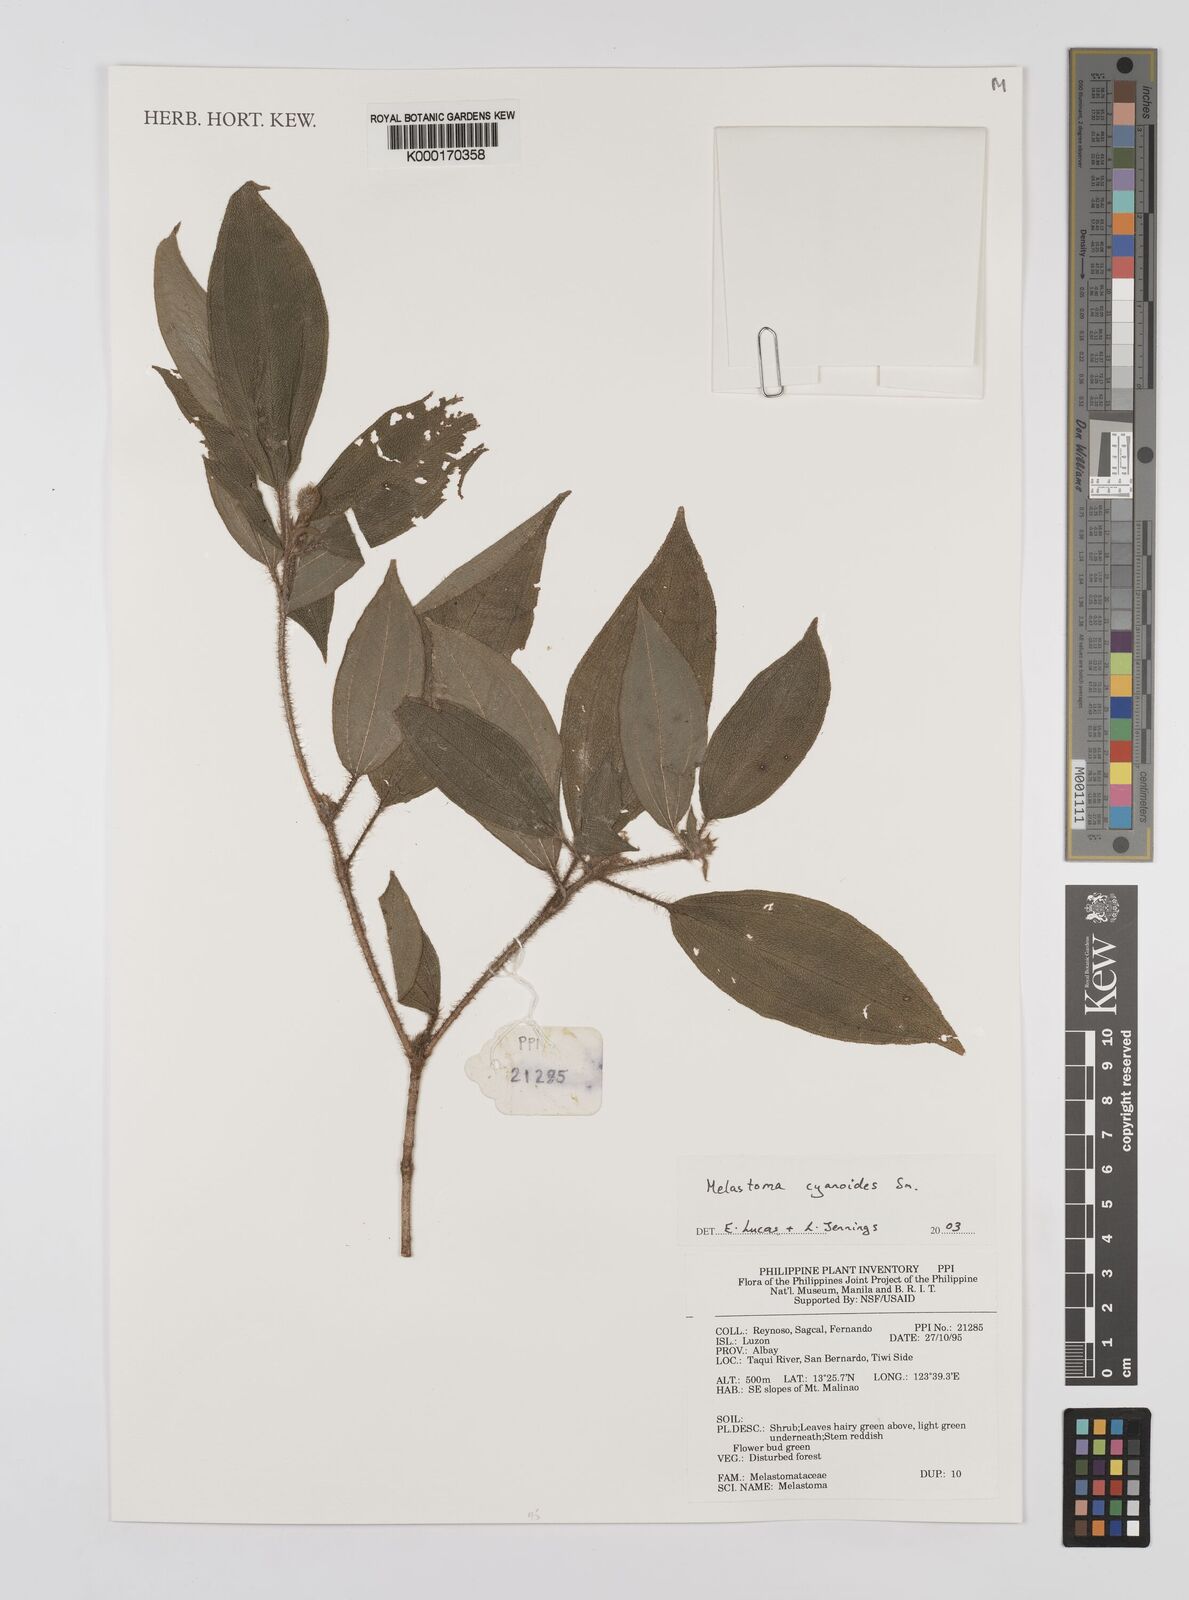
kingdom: Plantae
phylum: Tracheophyta
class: Magnoliopsida
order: Myrtales
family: Melastomataceae
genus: Melastoma
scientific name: Melastoma cyanoides
